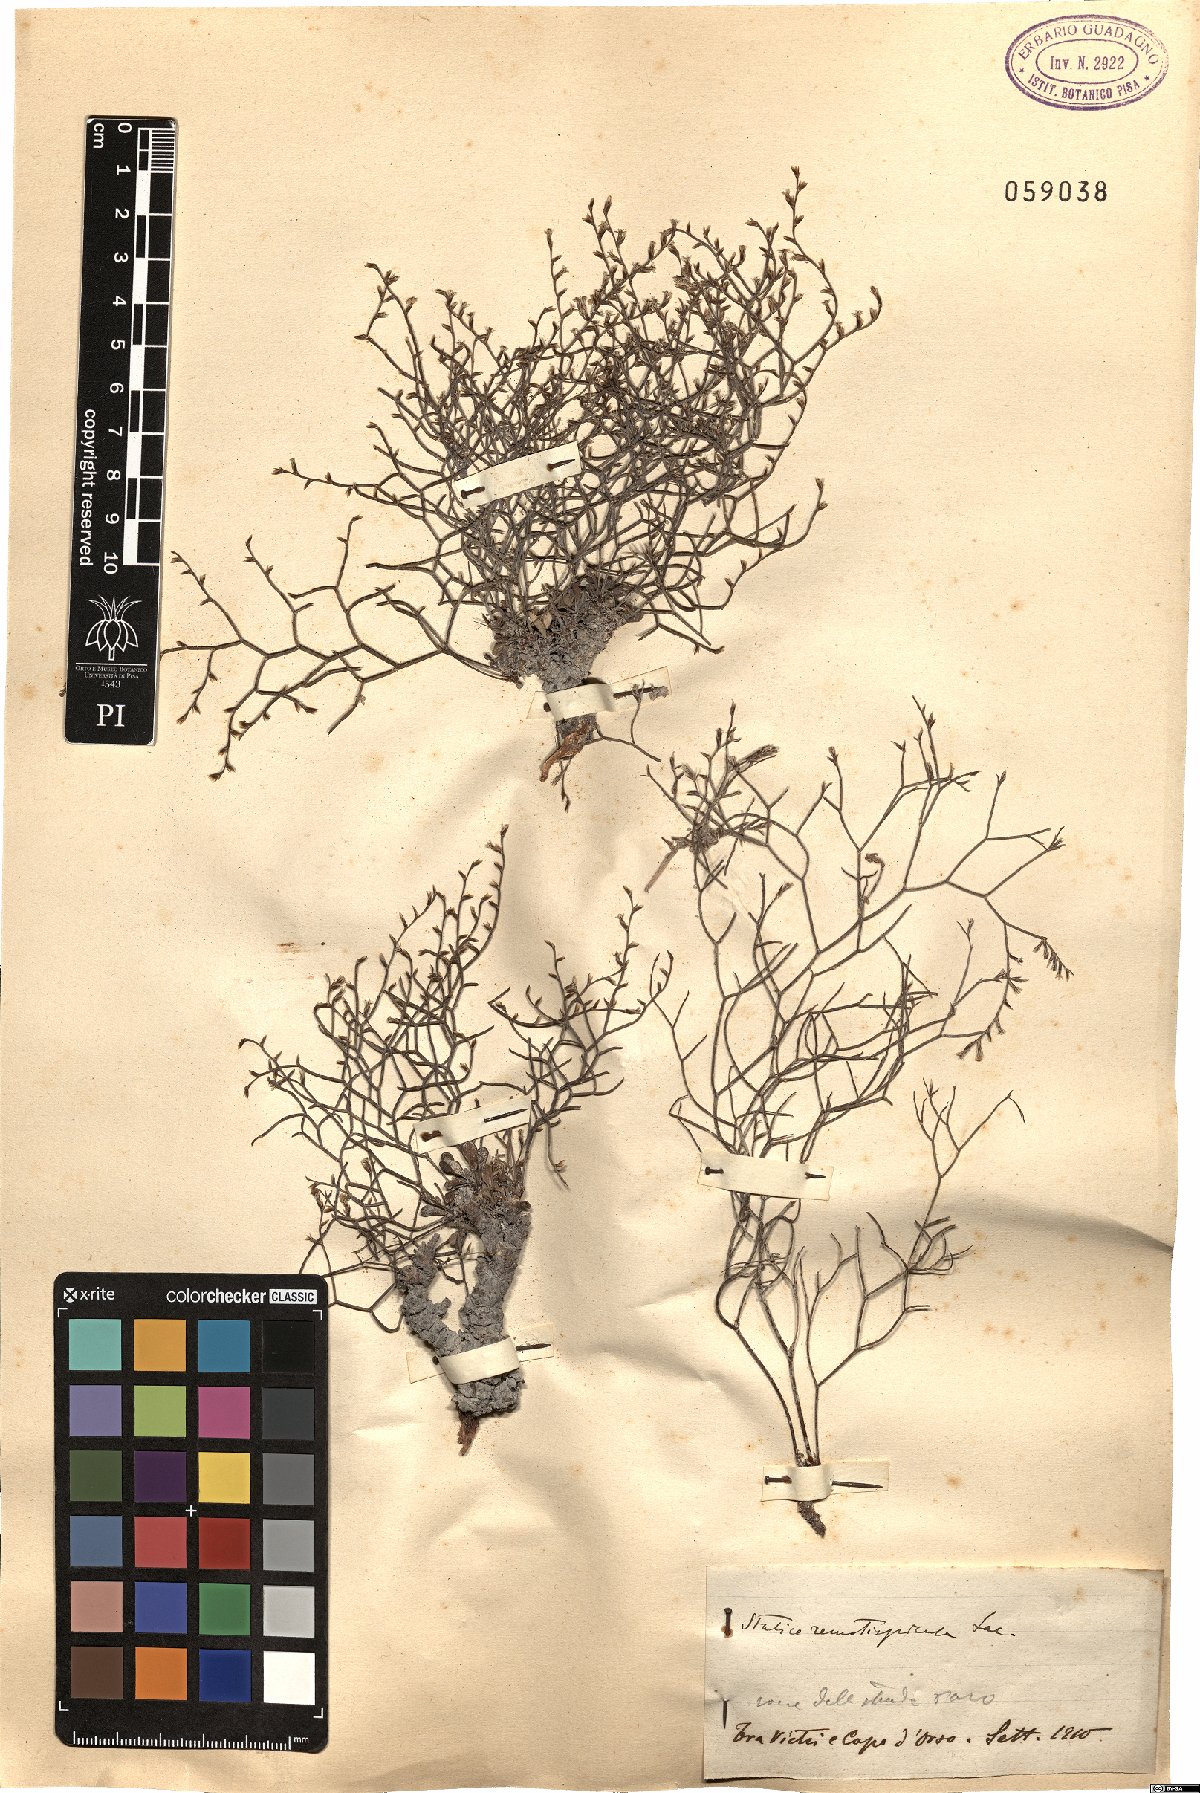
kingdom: Plantae
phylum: Tracheophyta
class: Magnoliopsida
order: Caryophyllales
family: Plumbaginaceae
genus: Limonium
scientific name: Limonium remotispiculum
